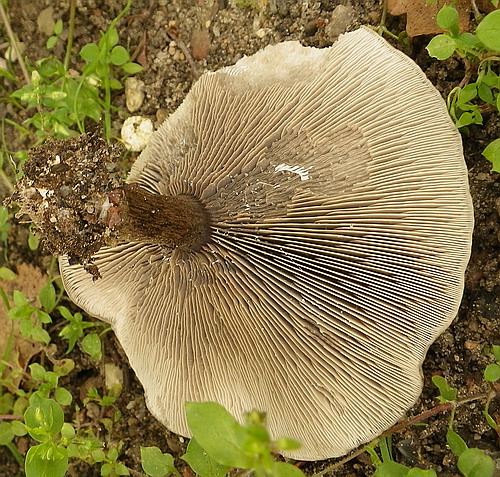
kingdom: Fungi
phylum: Basidiomycota
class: Agaricomycetes
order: Agaricales
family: Tricholomataceae
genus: Melanoleuca
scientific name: Melanoleuca
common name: munkehat
